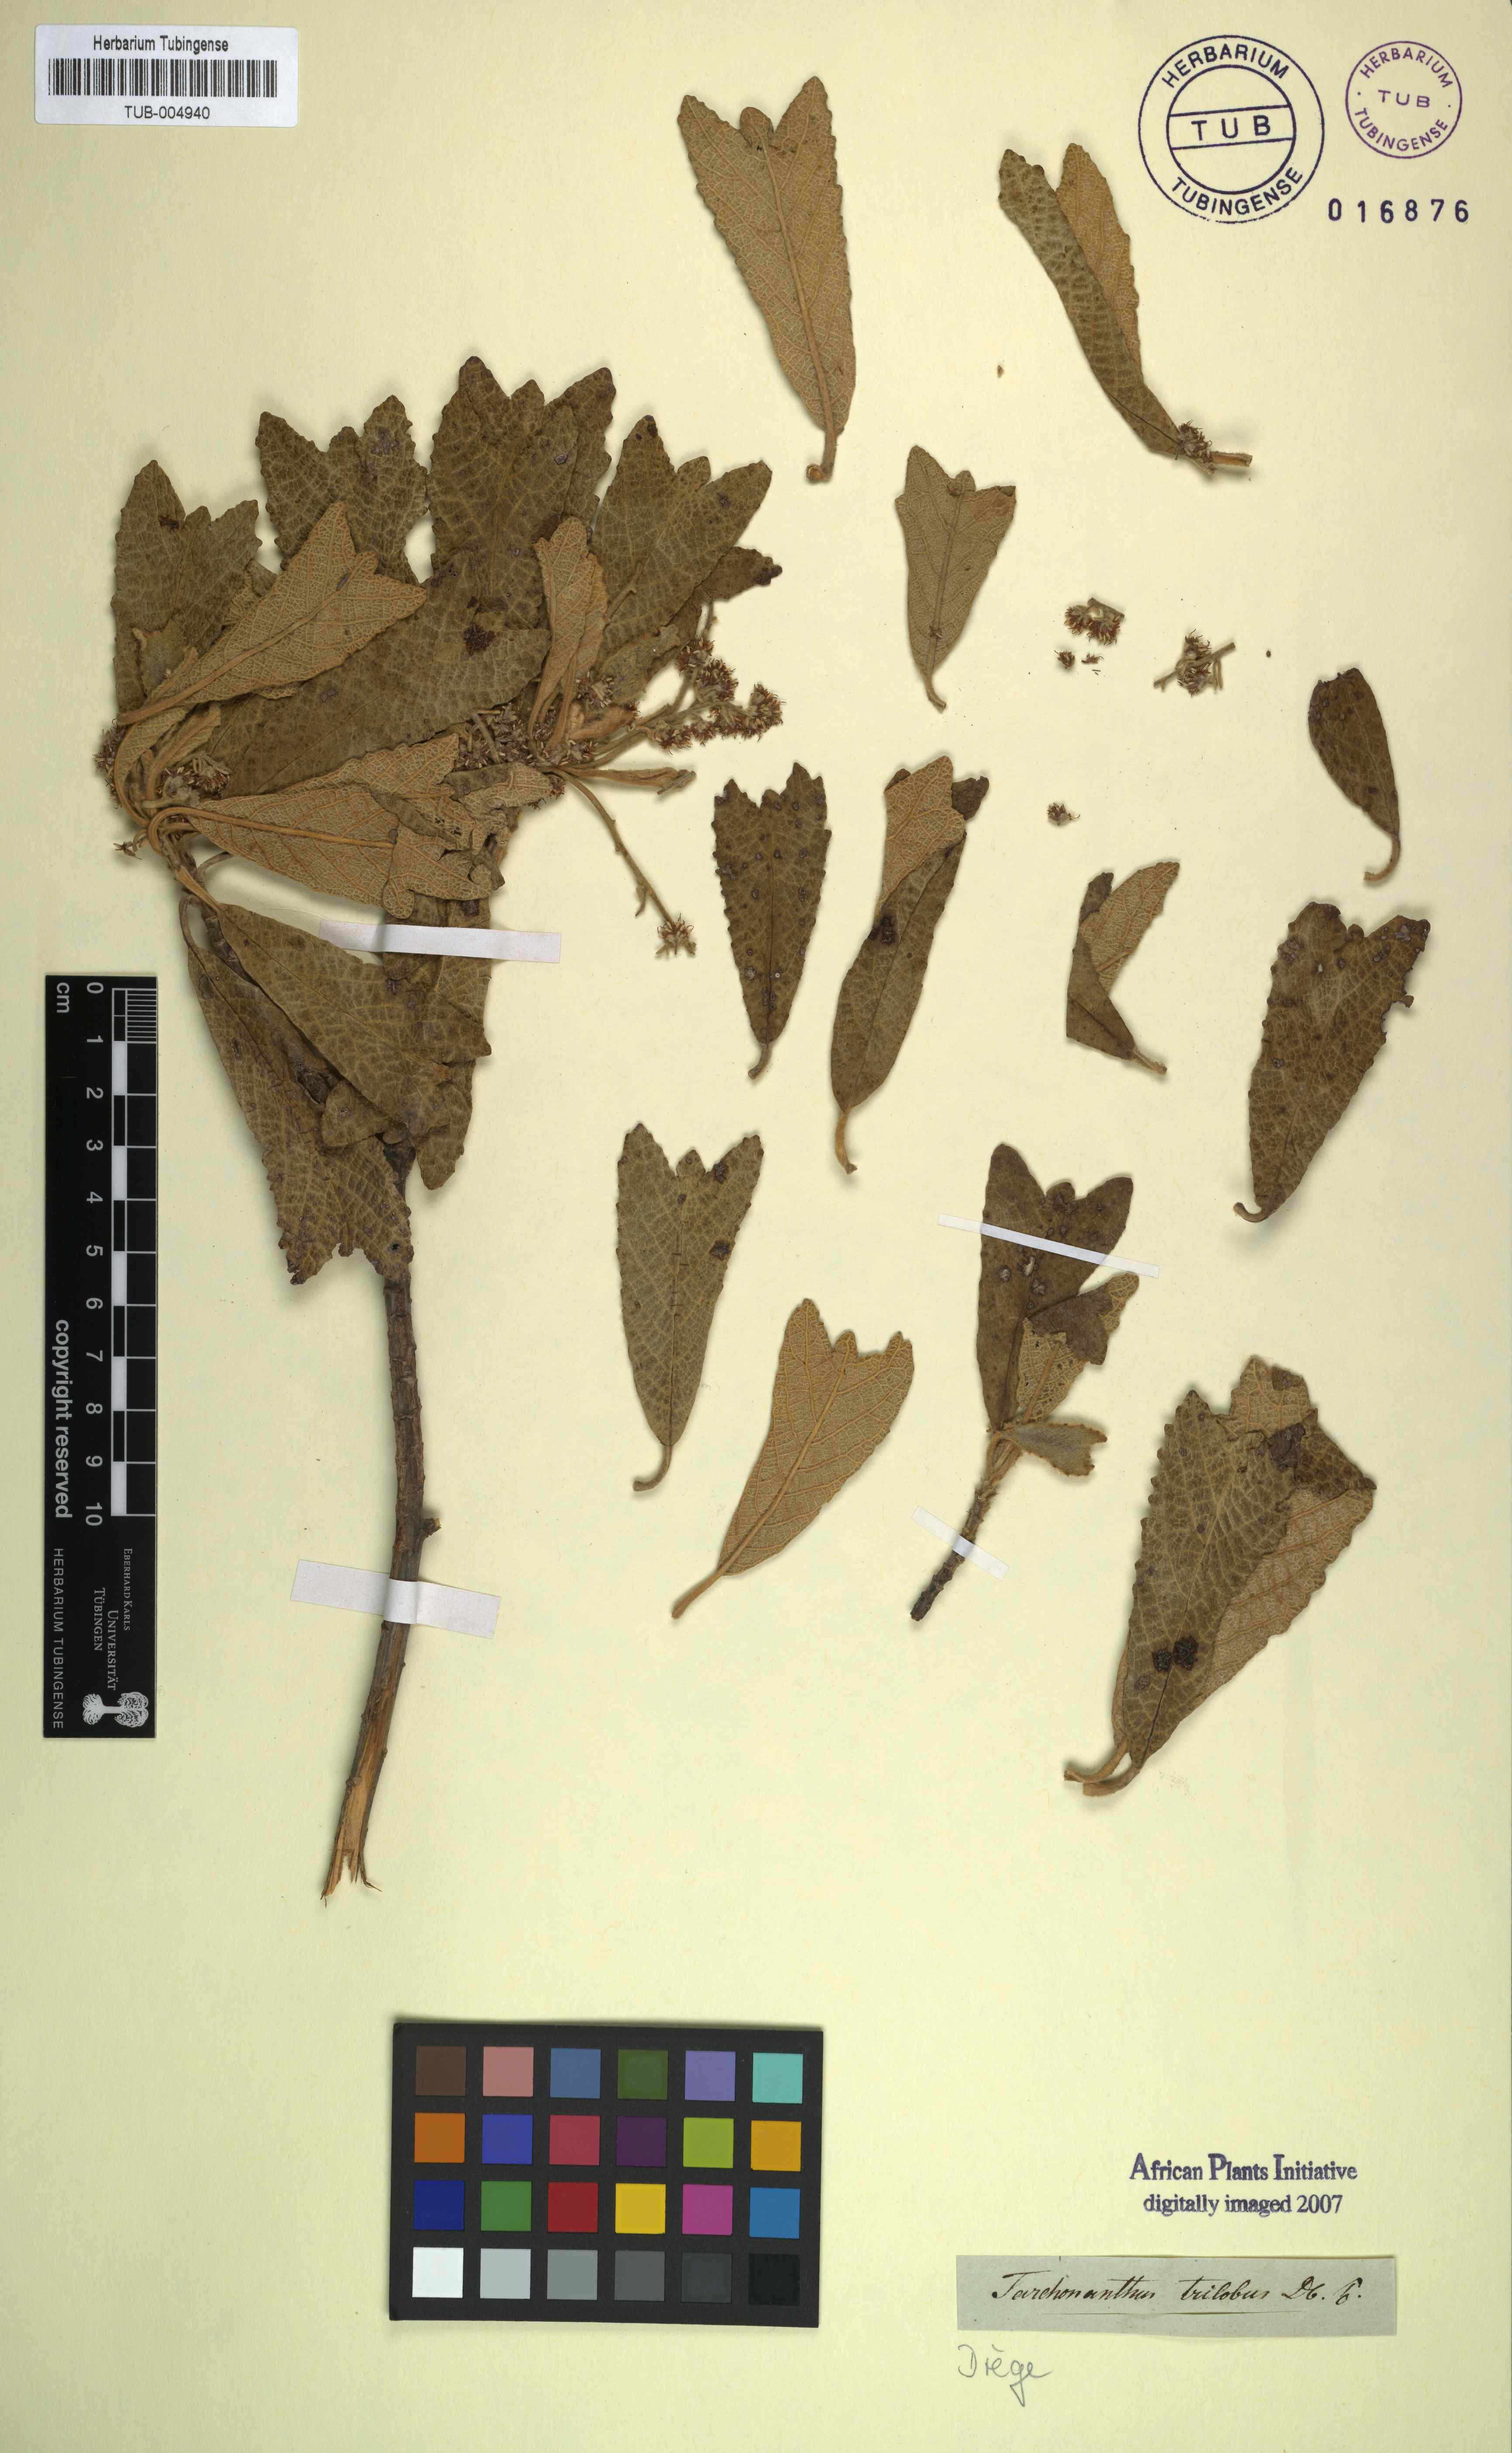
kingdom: Plantae
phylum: Tracheophyta
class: Magnoliopsida
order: Asterales
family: Asteraceae
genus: Tarchonanthus
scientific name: Tarchonanthus trilobus
